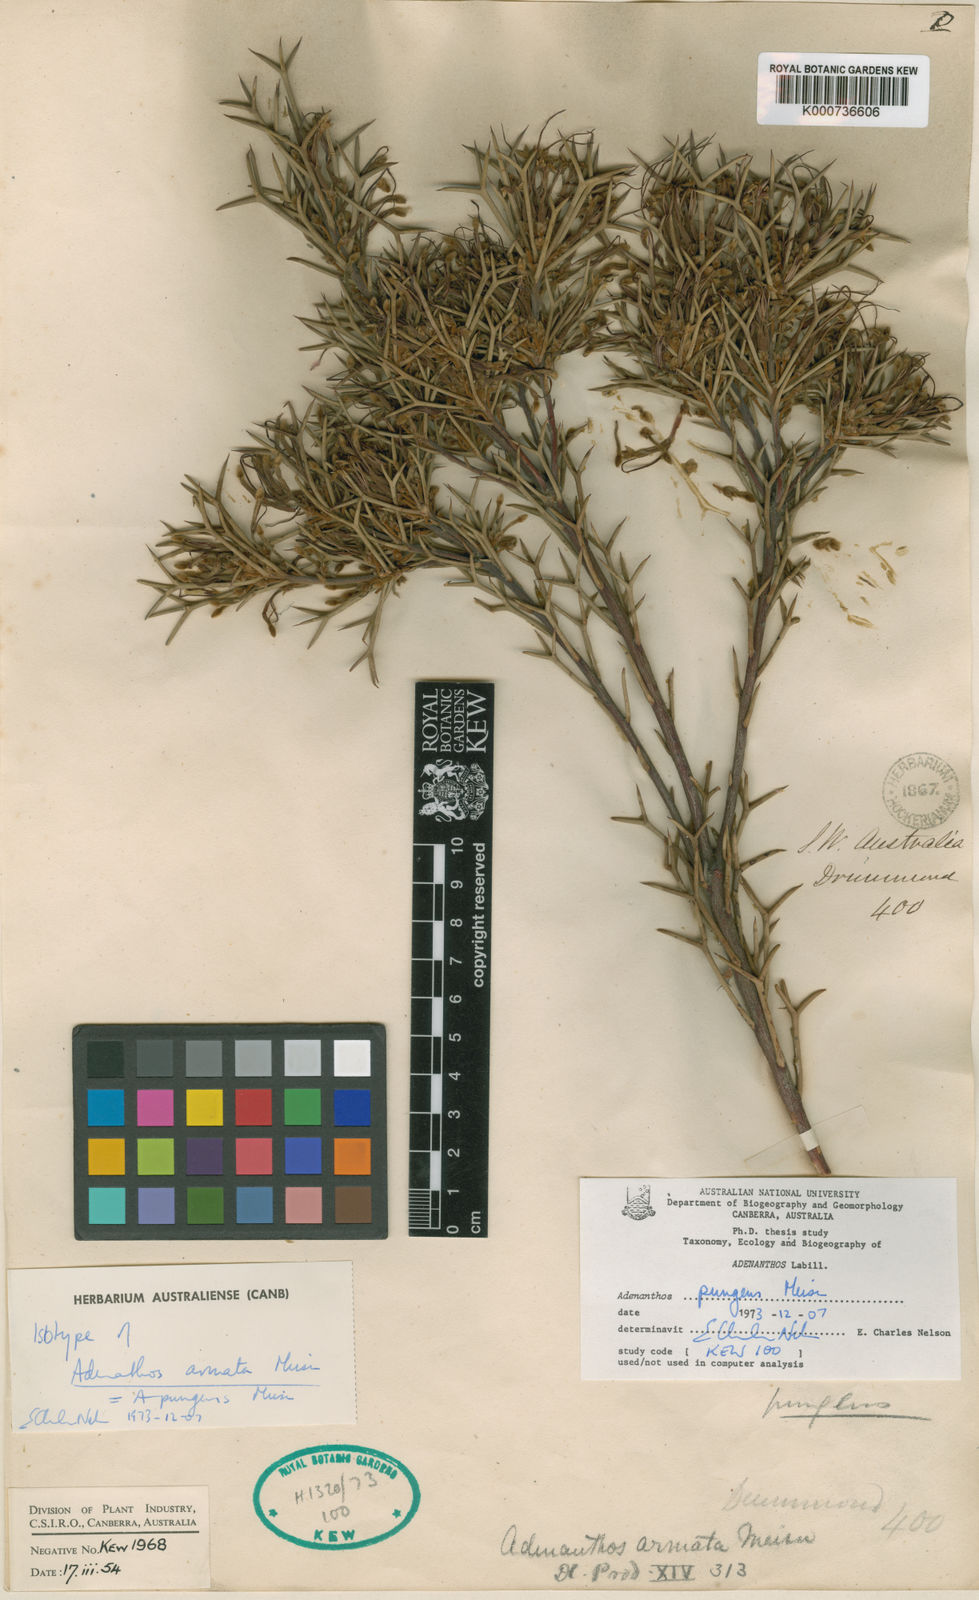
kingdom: Plantae
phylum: Tracheophyta
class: Magnoliopsida
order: Proteales
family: Proteaceae
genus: Adenanthos
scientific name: Adenanthos pungens
